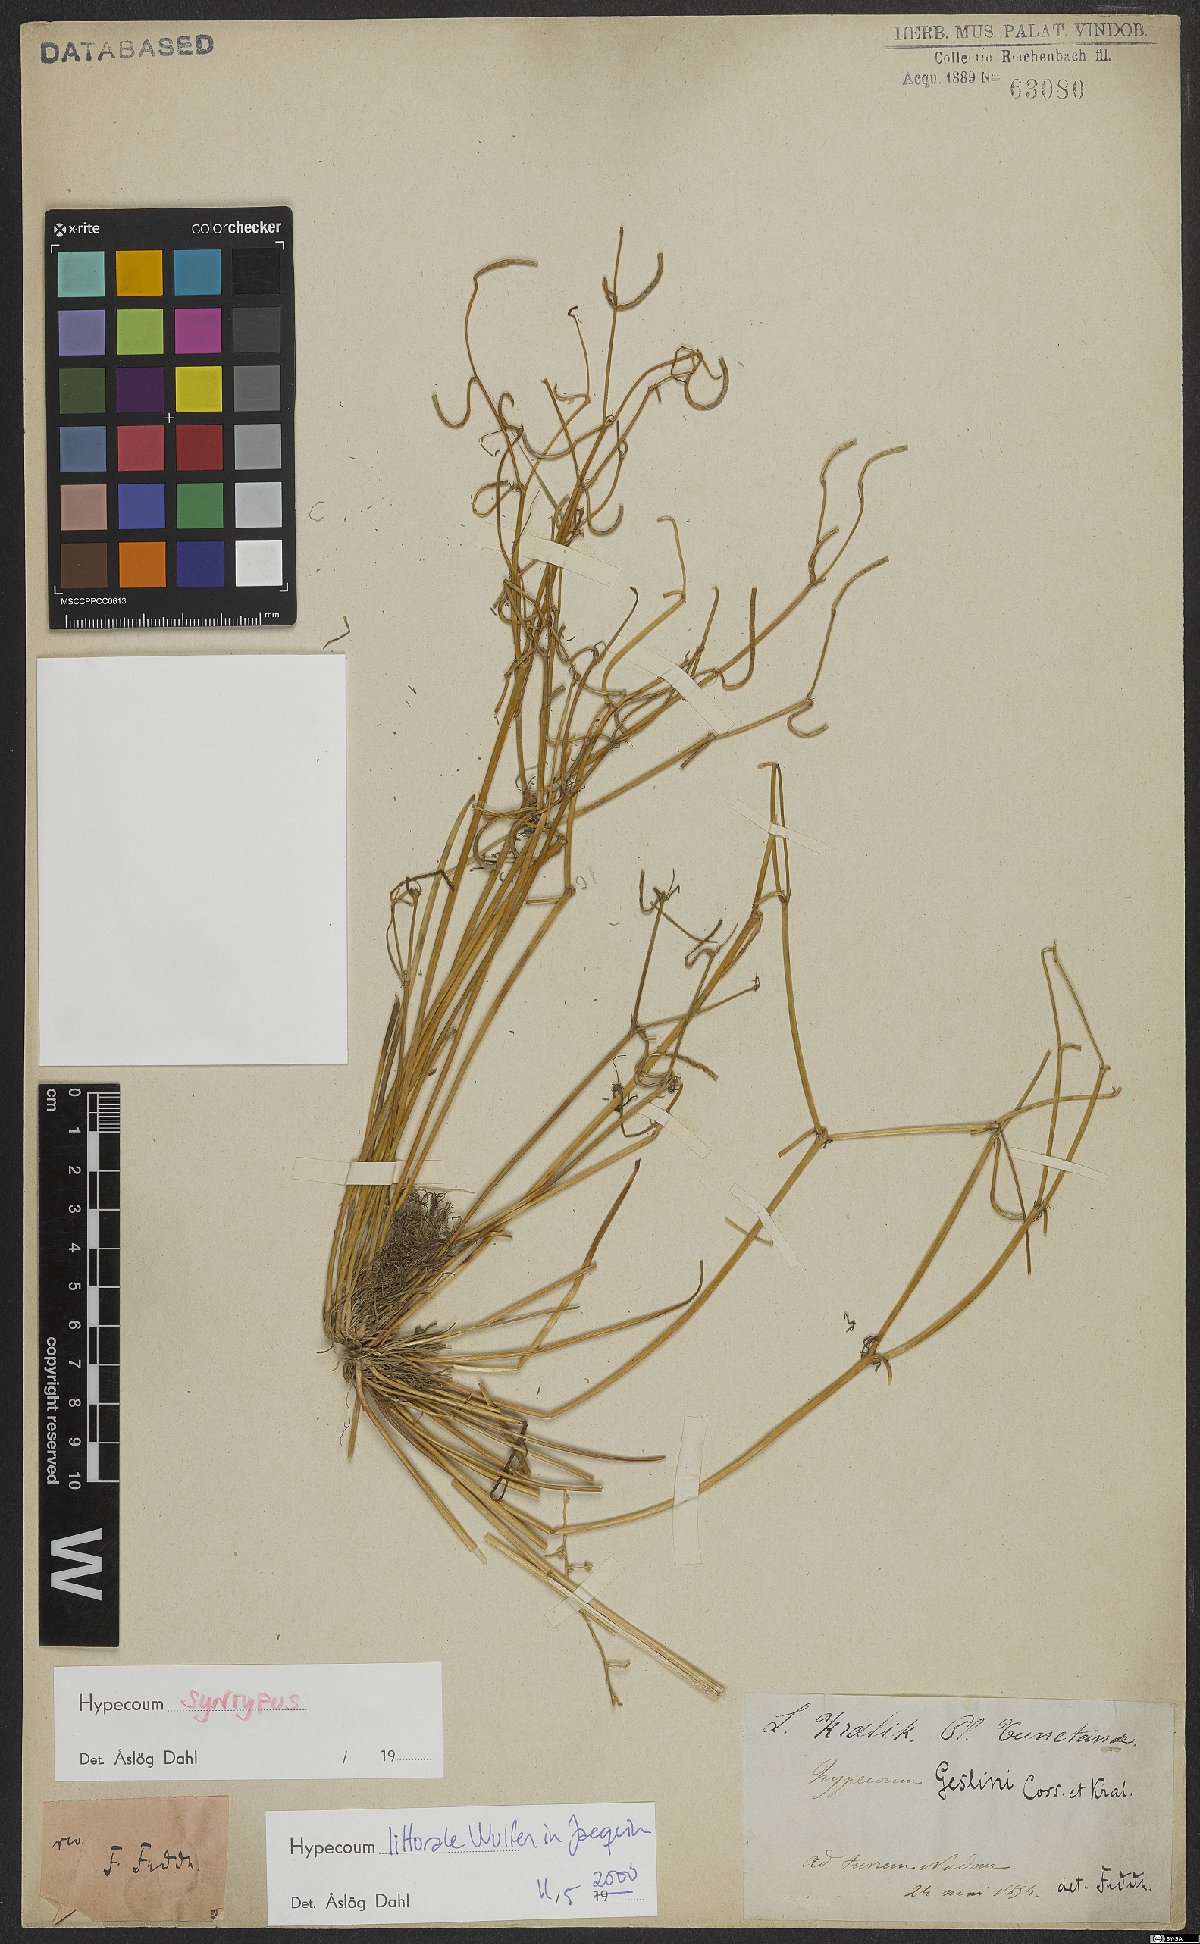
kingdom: Plantae
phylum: Tracheophyta
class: Magnoliopsida
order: Ranunculales
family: Papaveraceae
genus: Hypecoum
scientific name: Hypecoum littorale
